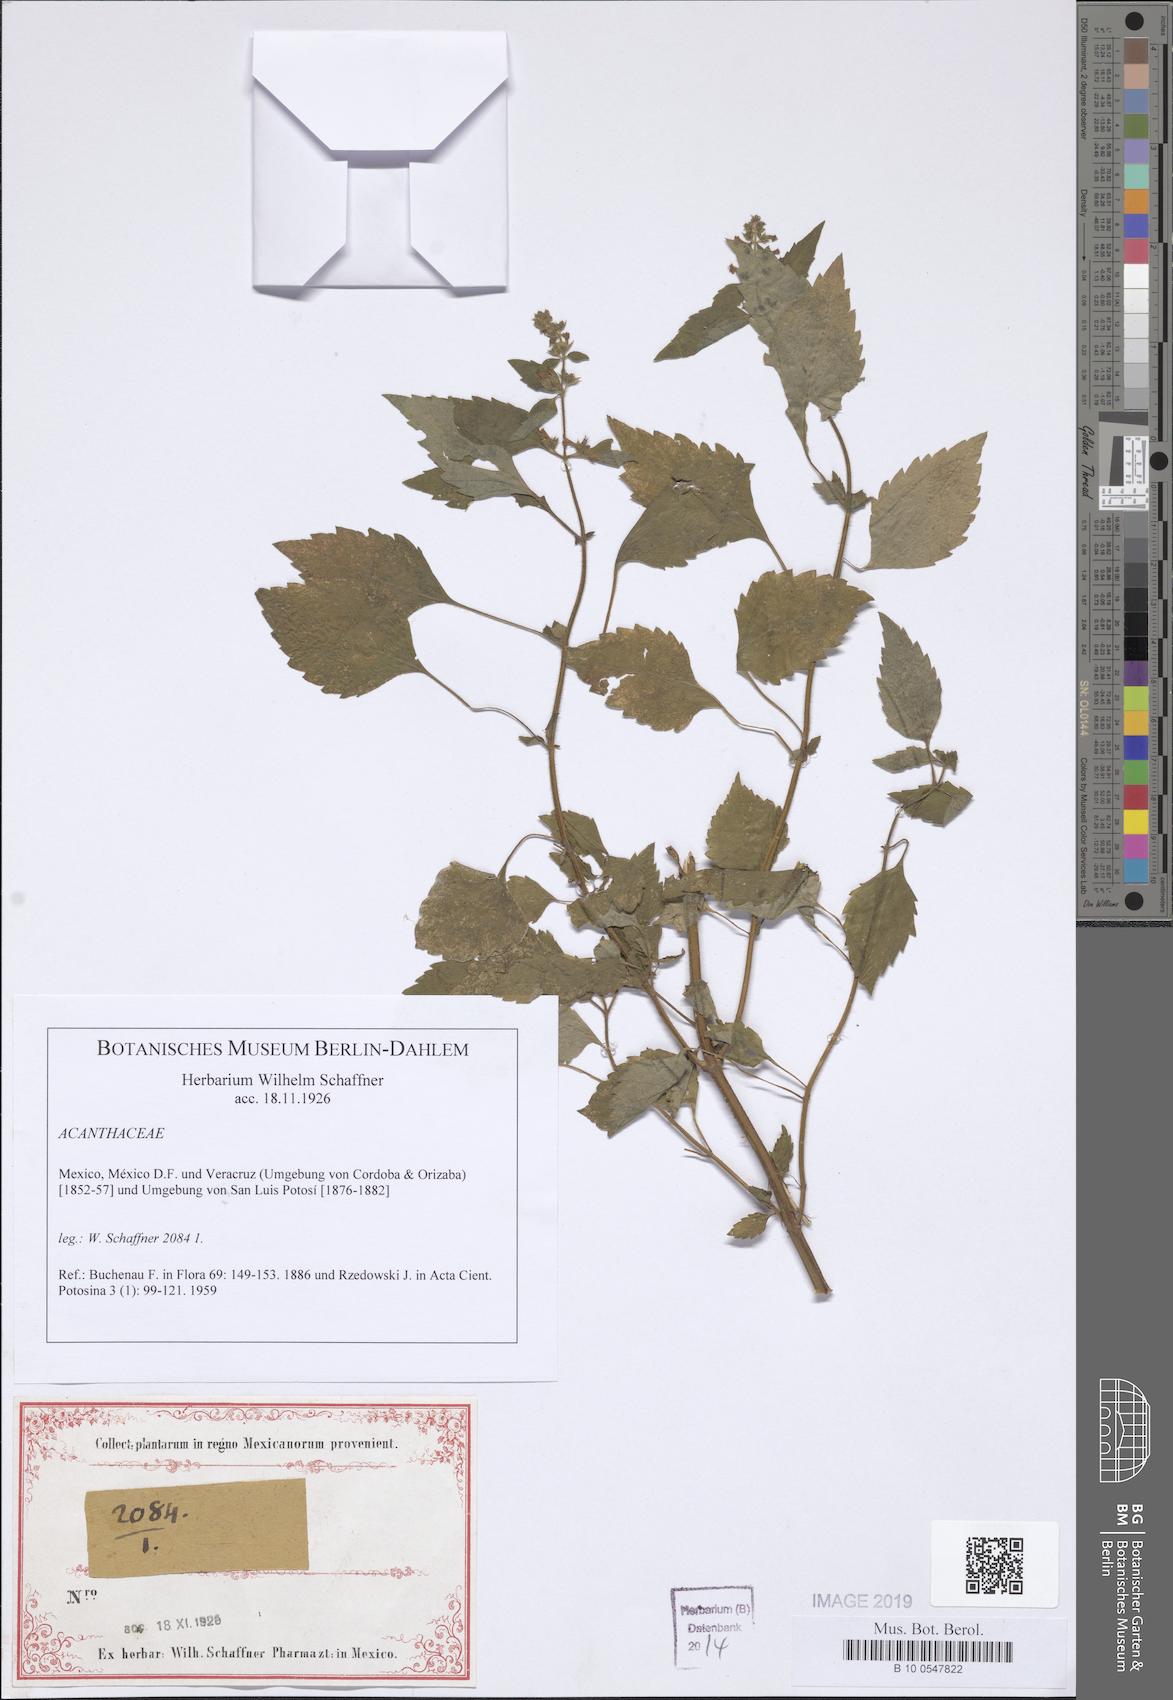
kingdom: Plantae
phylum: Tracheophyta
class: Magnoliopsida
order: Lamiales
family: Acanthaceae
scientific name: Acanthaceae
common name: Acanthaceae
